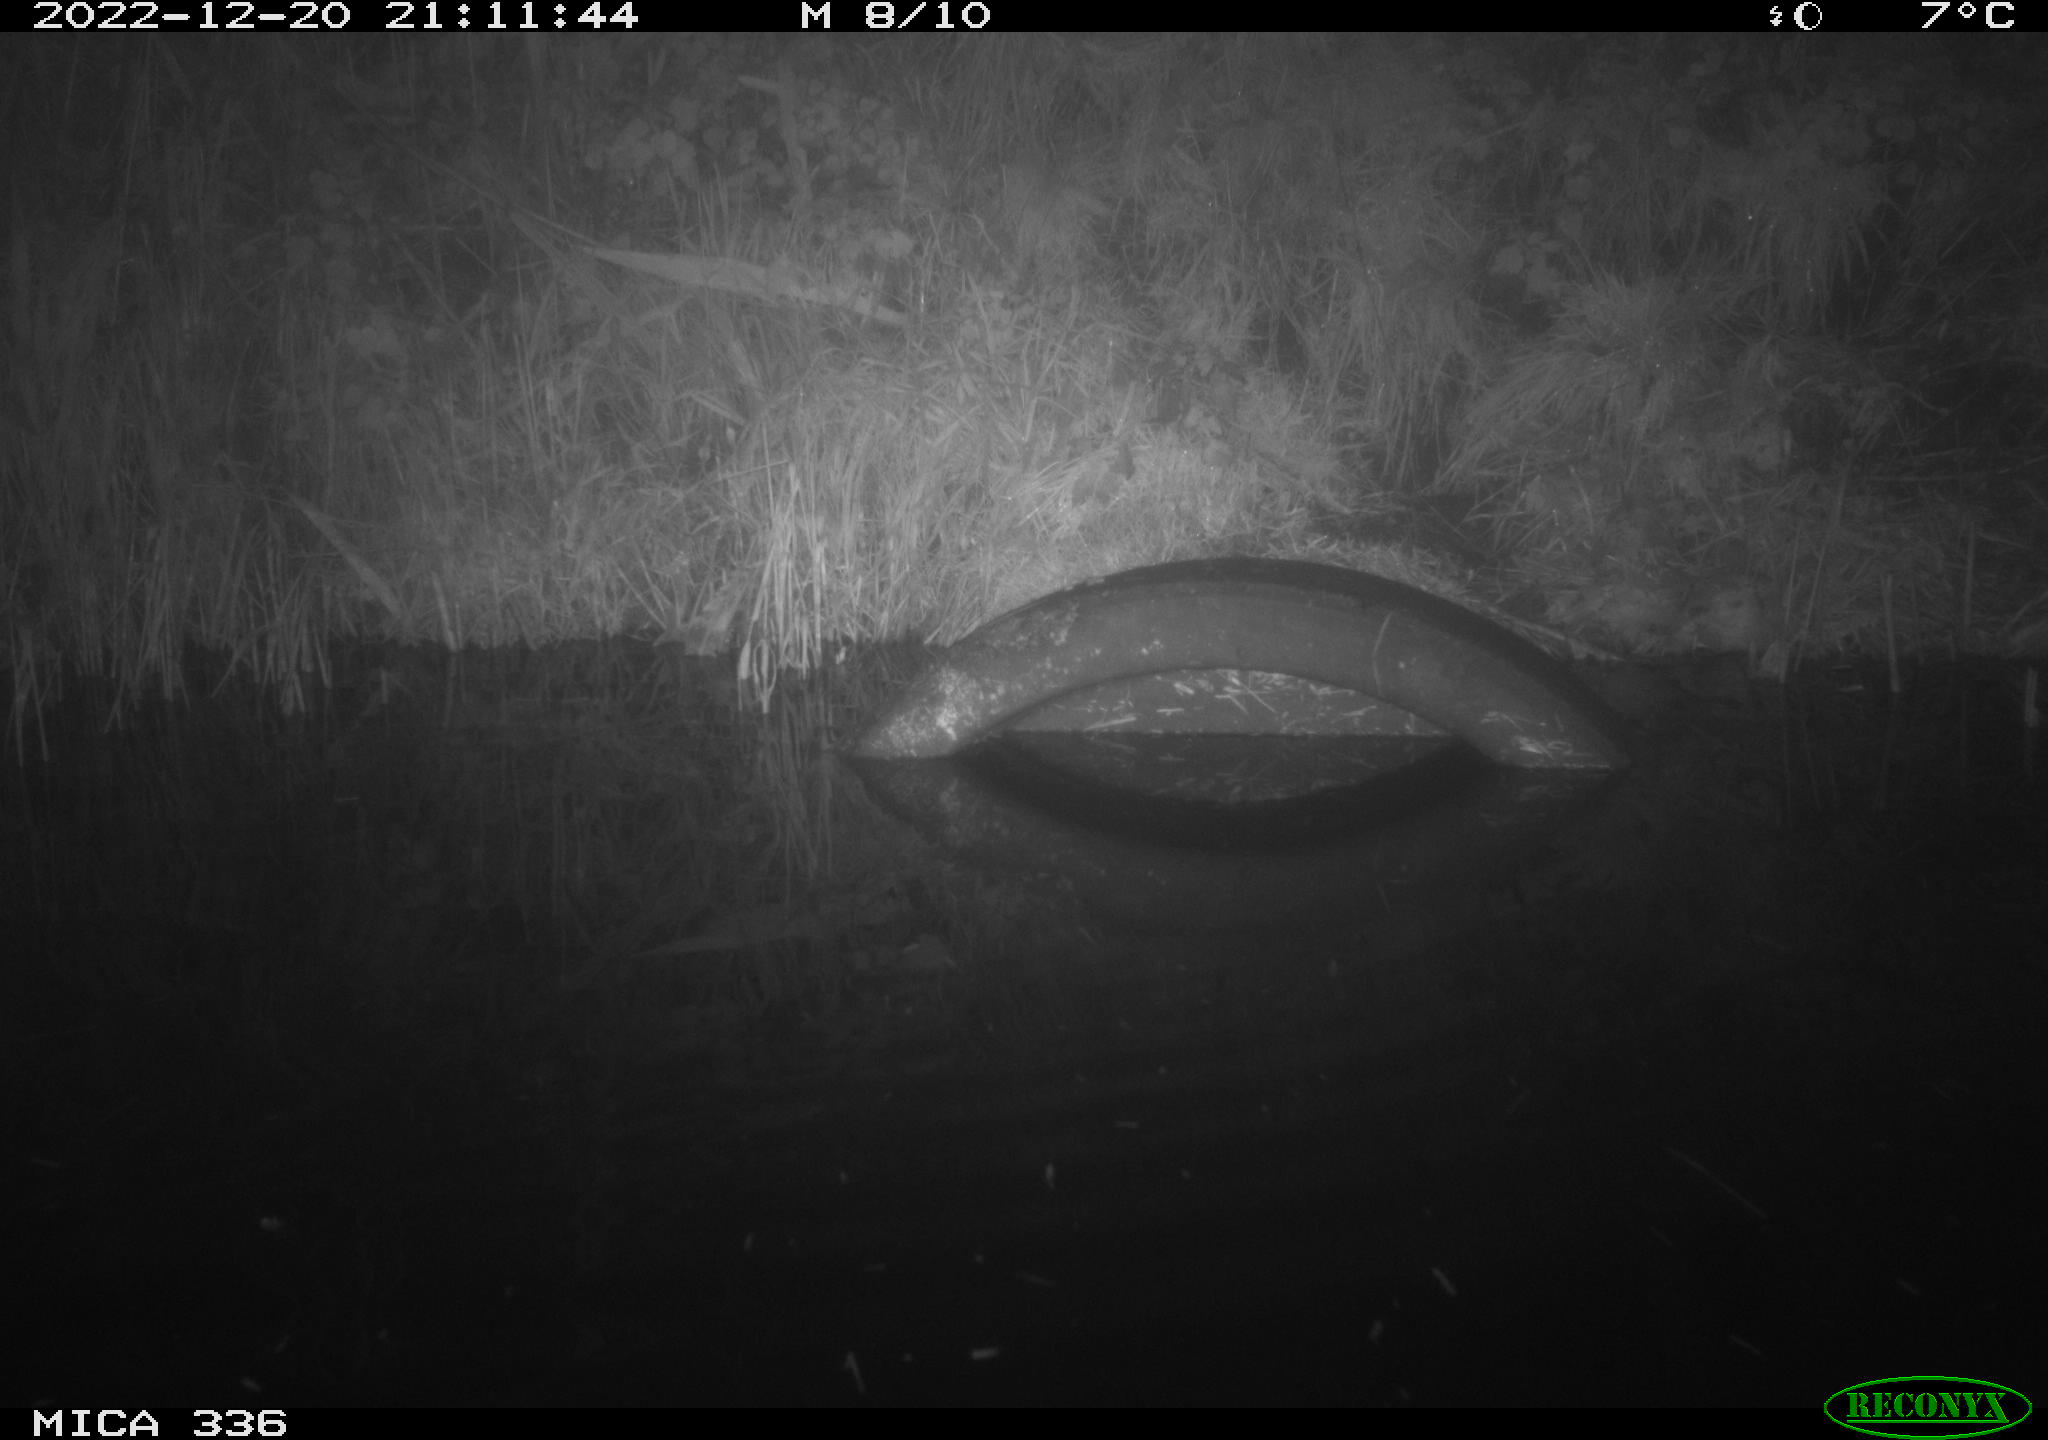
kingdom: Animalia
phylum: Chordata
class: Mammalia
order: Rodentia
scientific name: Rodentia
